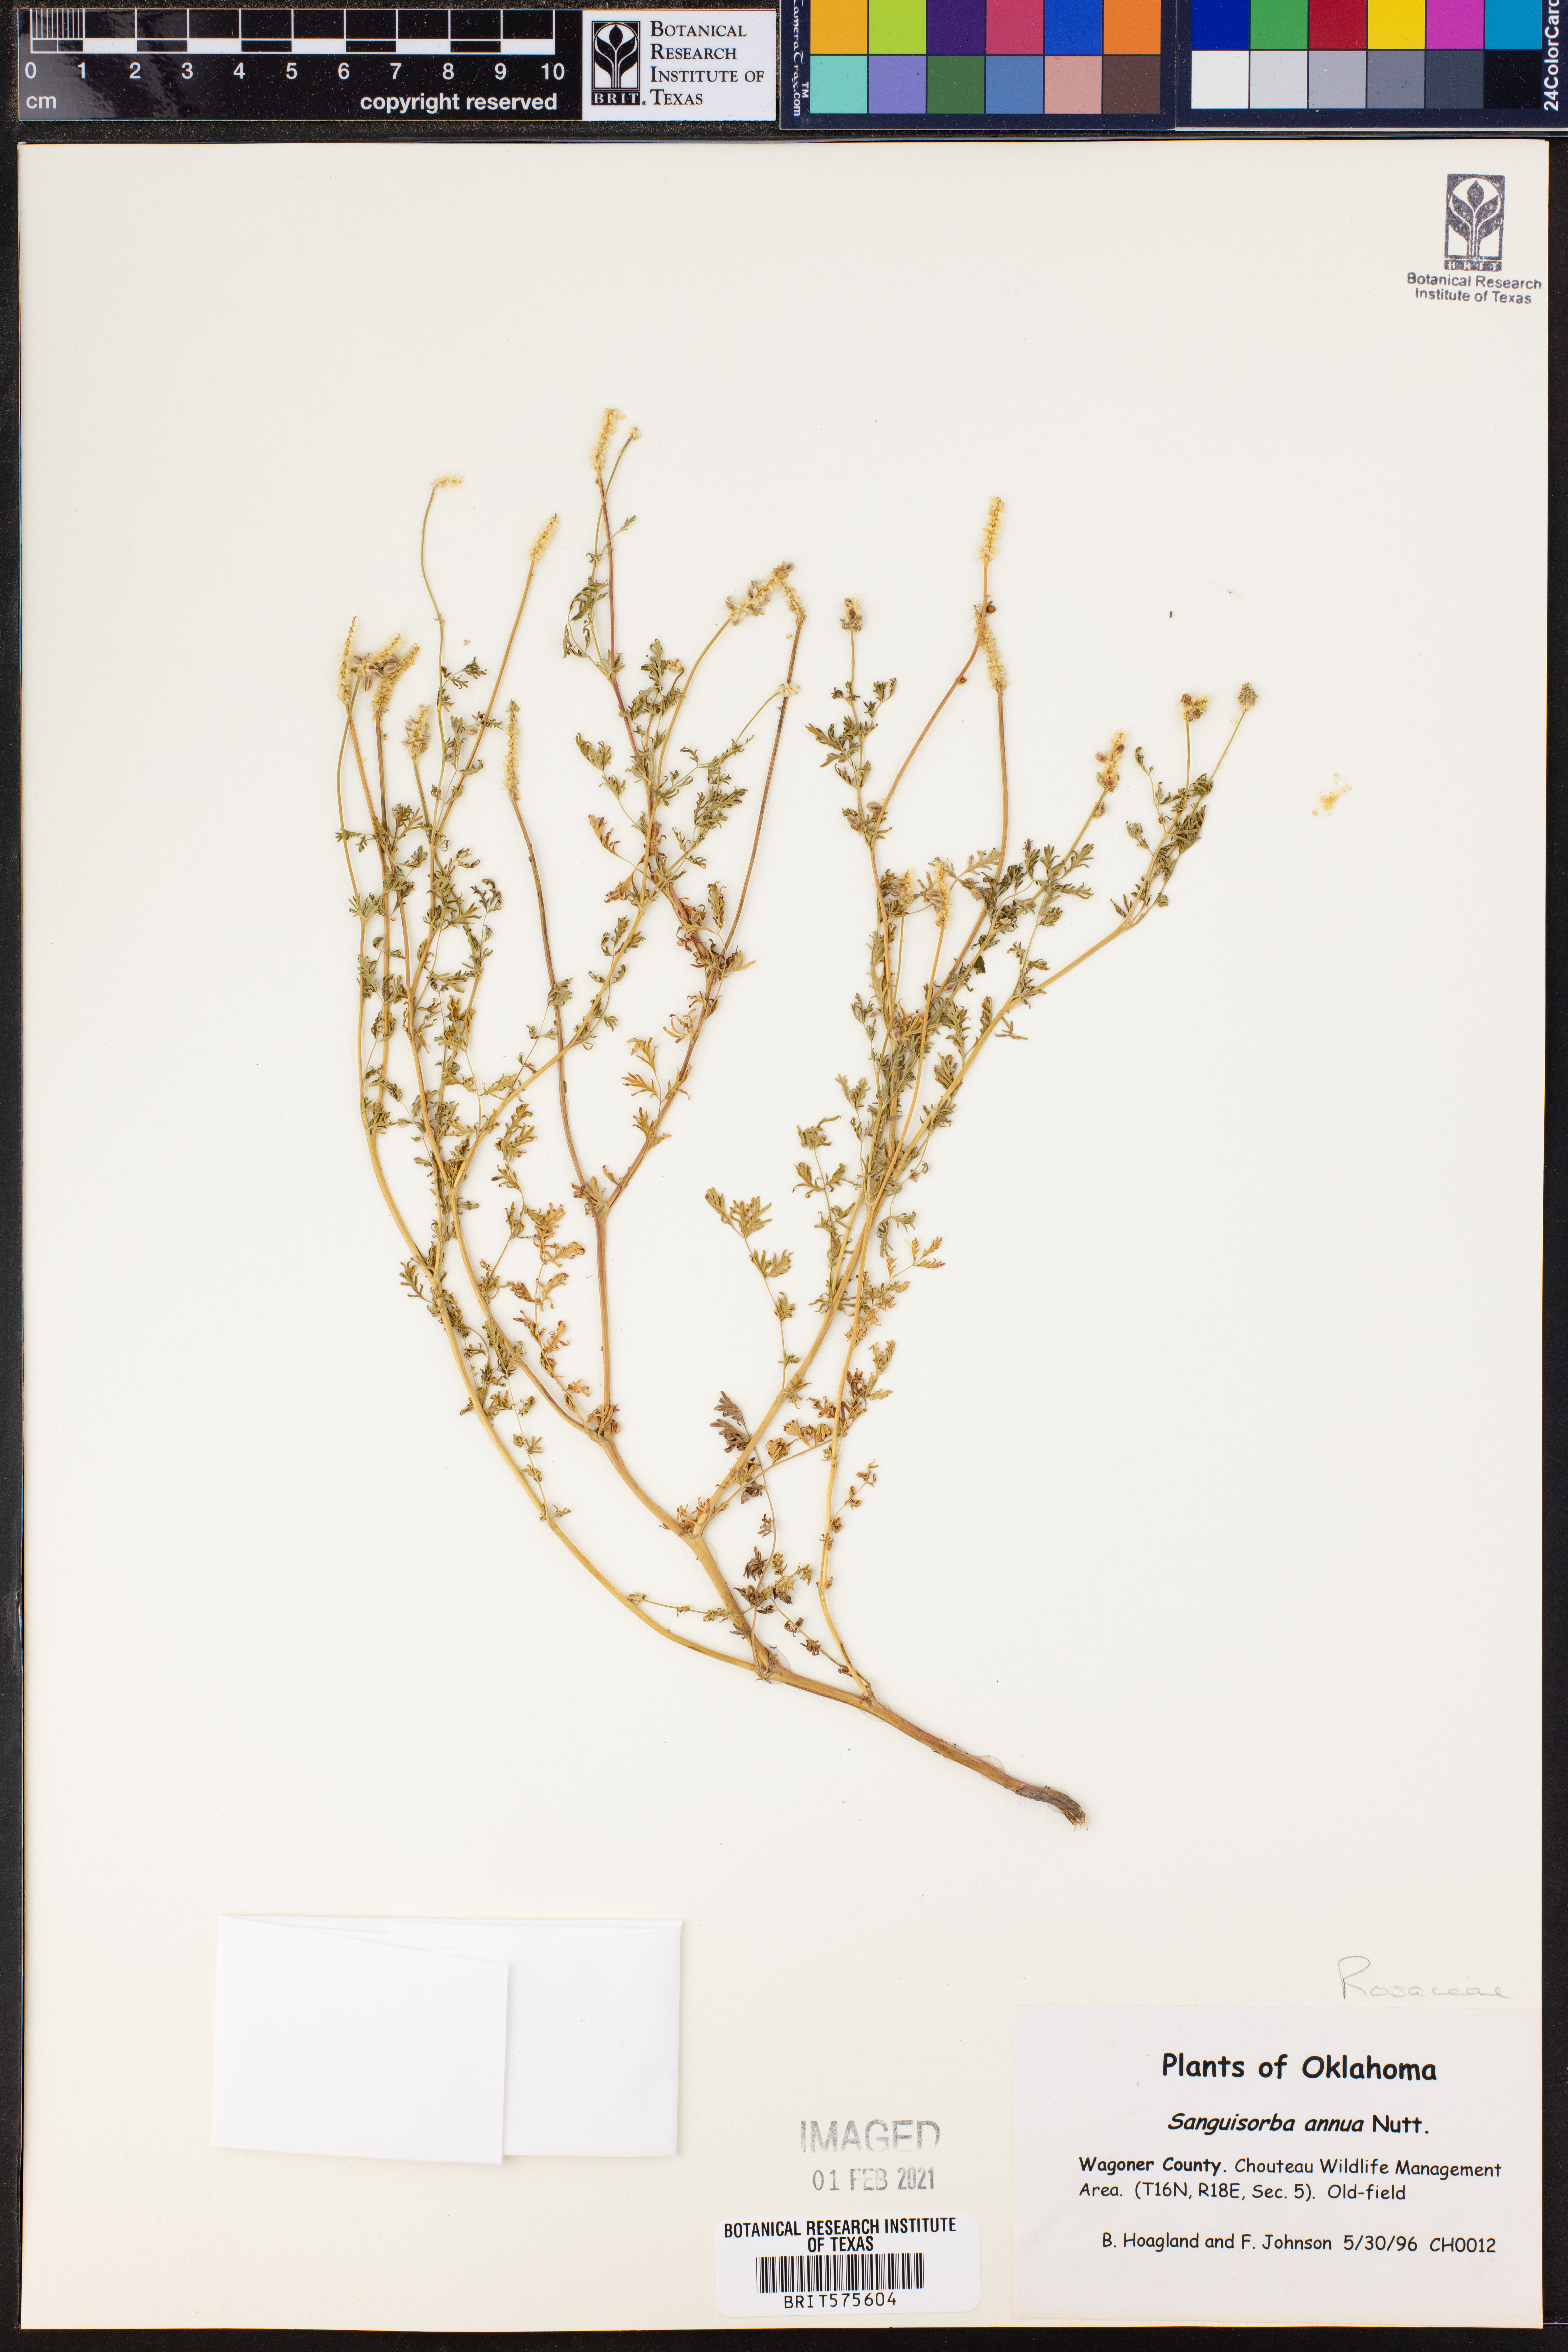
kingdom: Plantae
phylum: Tracheophyta
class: Magnoliopsida
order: Rosales
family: Rosaceae
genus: Poteridium
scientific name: Poteridium annuum
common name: Annual burnet
